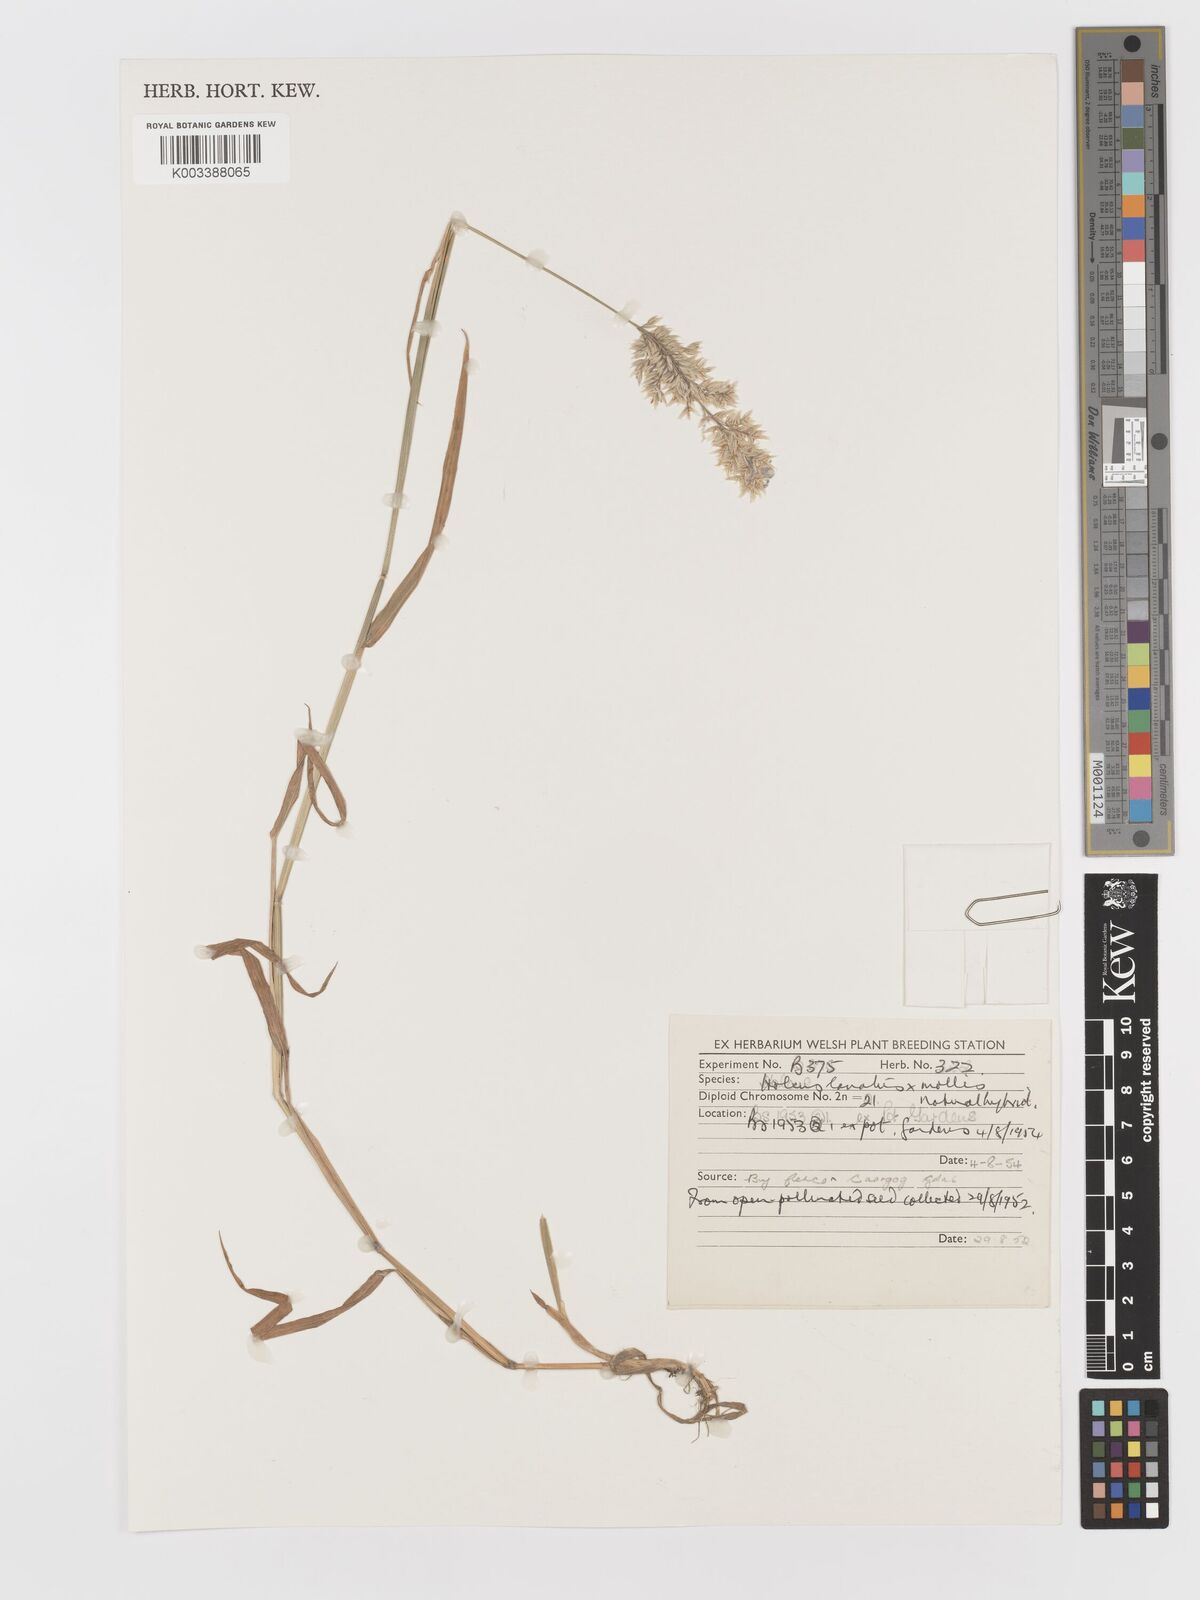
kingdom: Plantae
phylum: Tracheophyta
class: Liliopsida
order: Poales
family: Poaceae
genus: Holcus
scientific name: Holcus lanatus
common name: Yorkshire-fog
